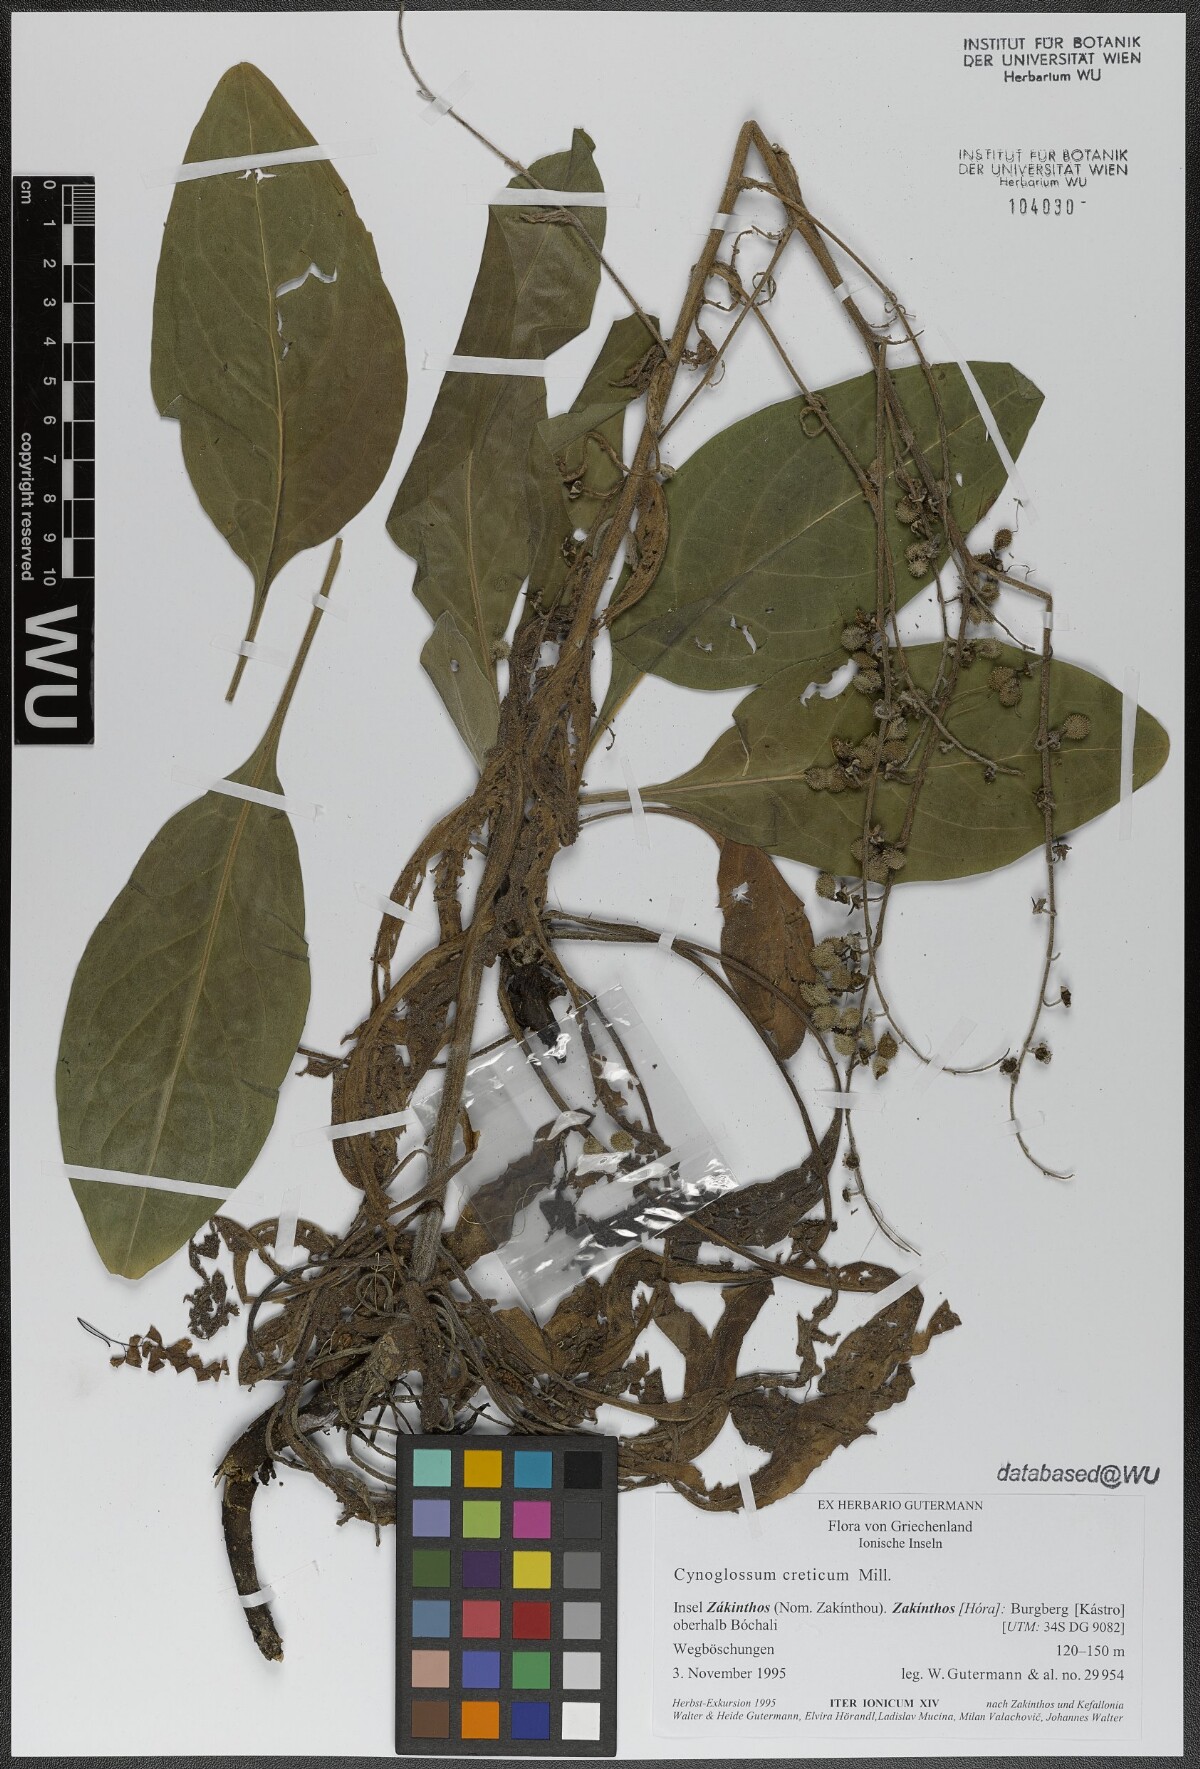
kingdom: Plantae
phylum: Tracheophyta
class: Magnoliopsida
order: Boraginales
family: Boraginaceae
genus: Cynoglossum
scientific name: Cynoglossum creticum
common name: Blue hound's tongue
